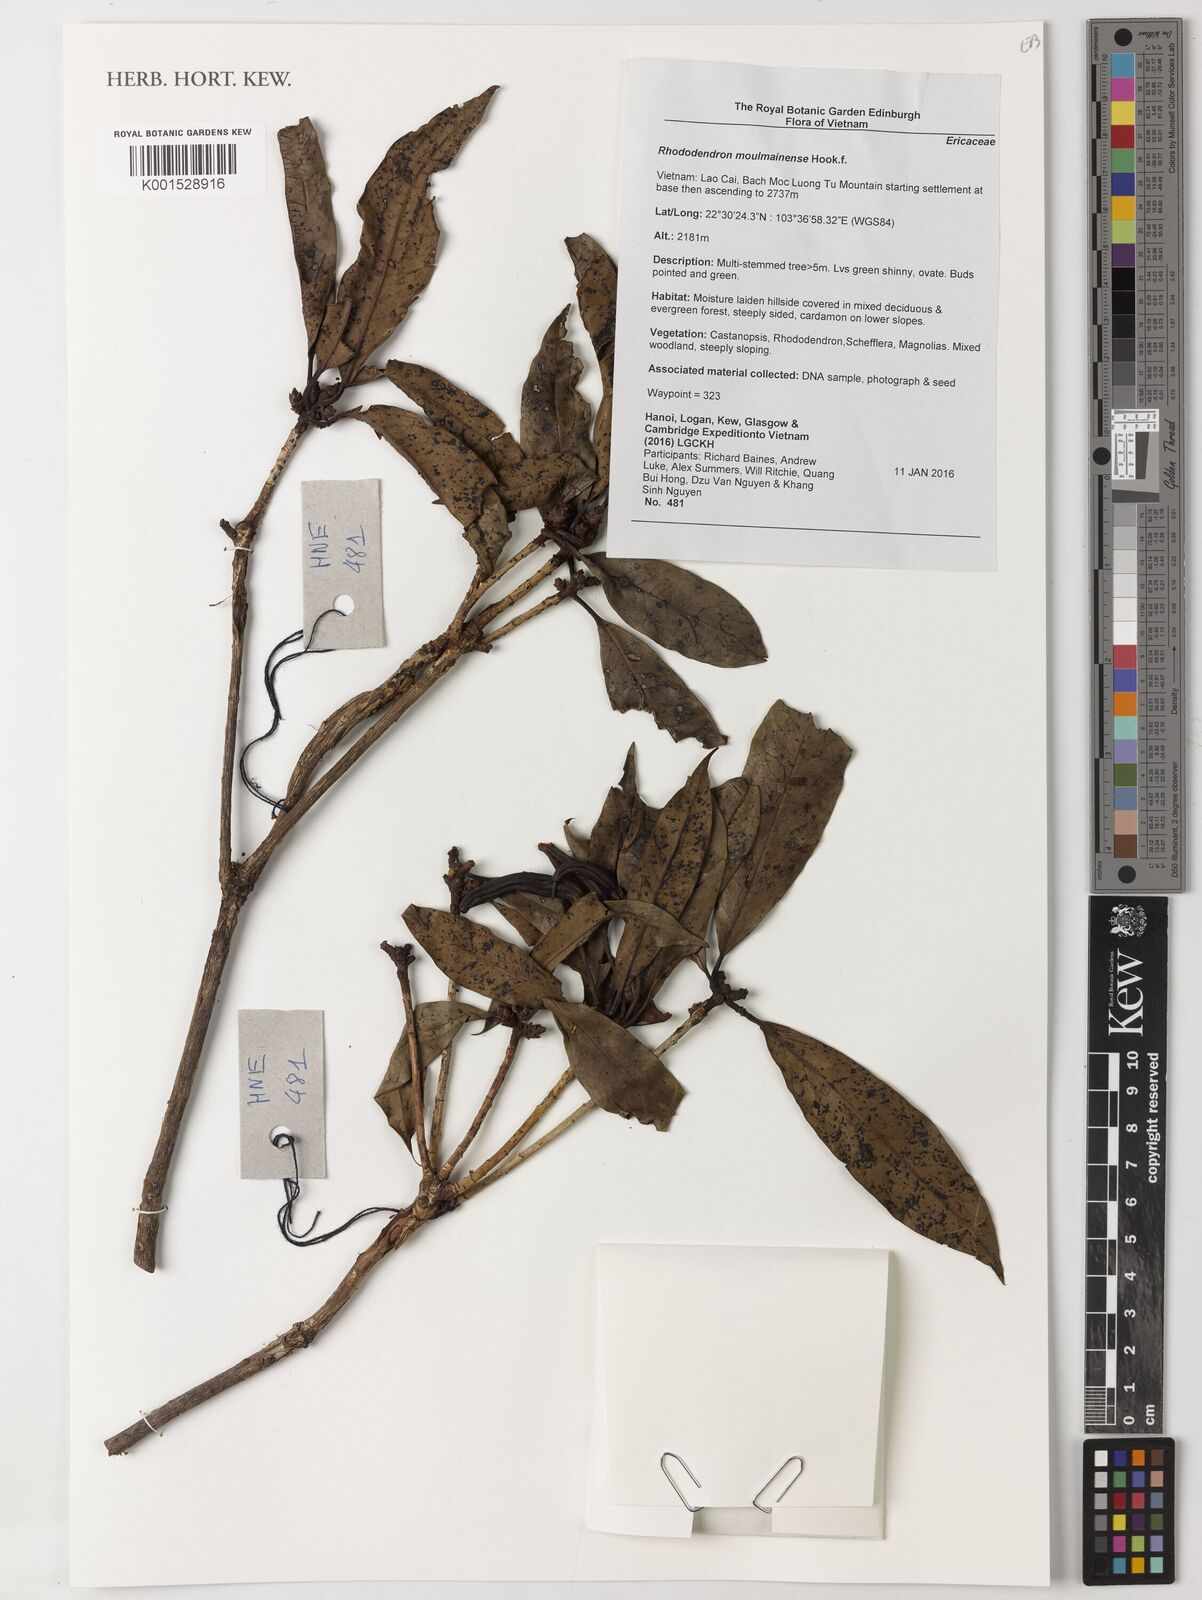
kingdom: Plantae
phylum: Tracheophyta
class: Magnoliopsida
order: Ericales
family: Ericaceae
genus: Rhododendron
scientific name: Rhododendron moulmainense
